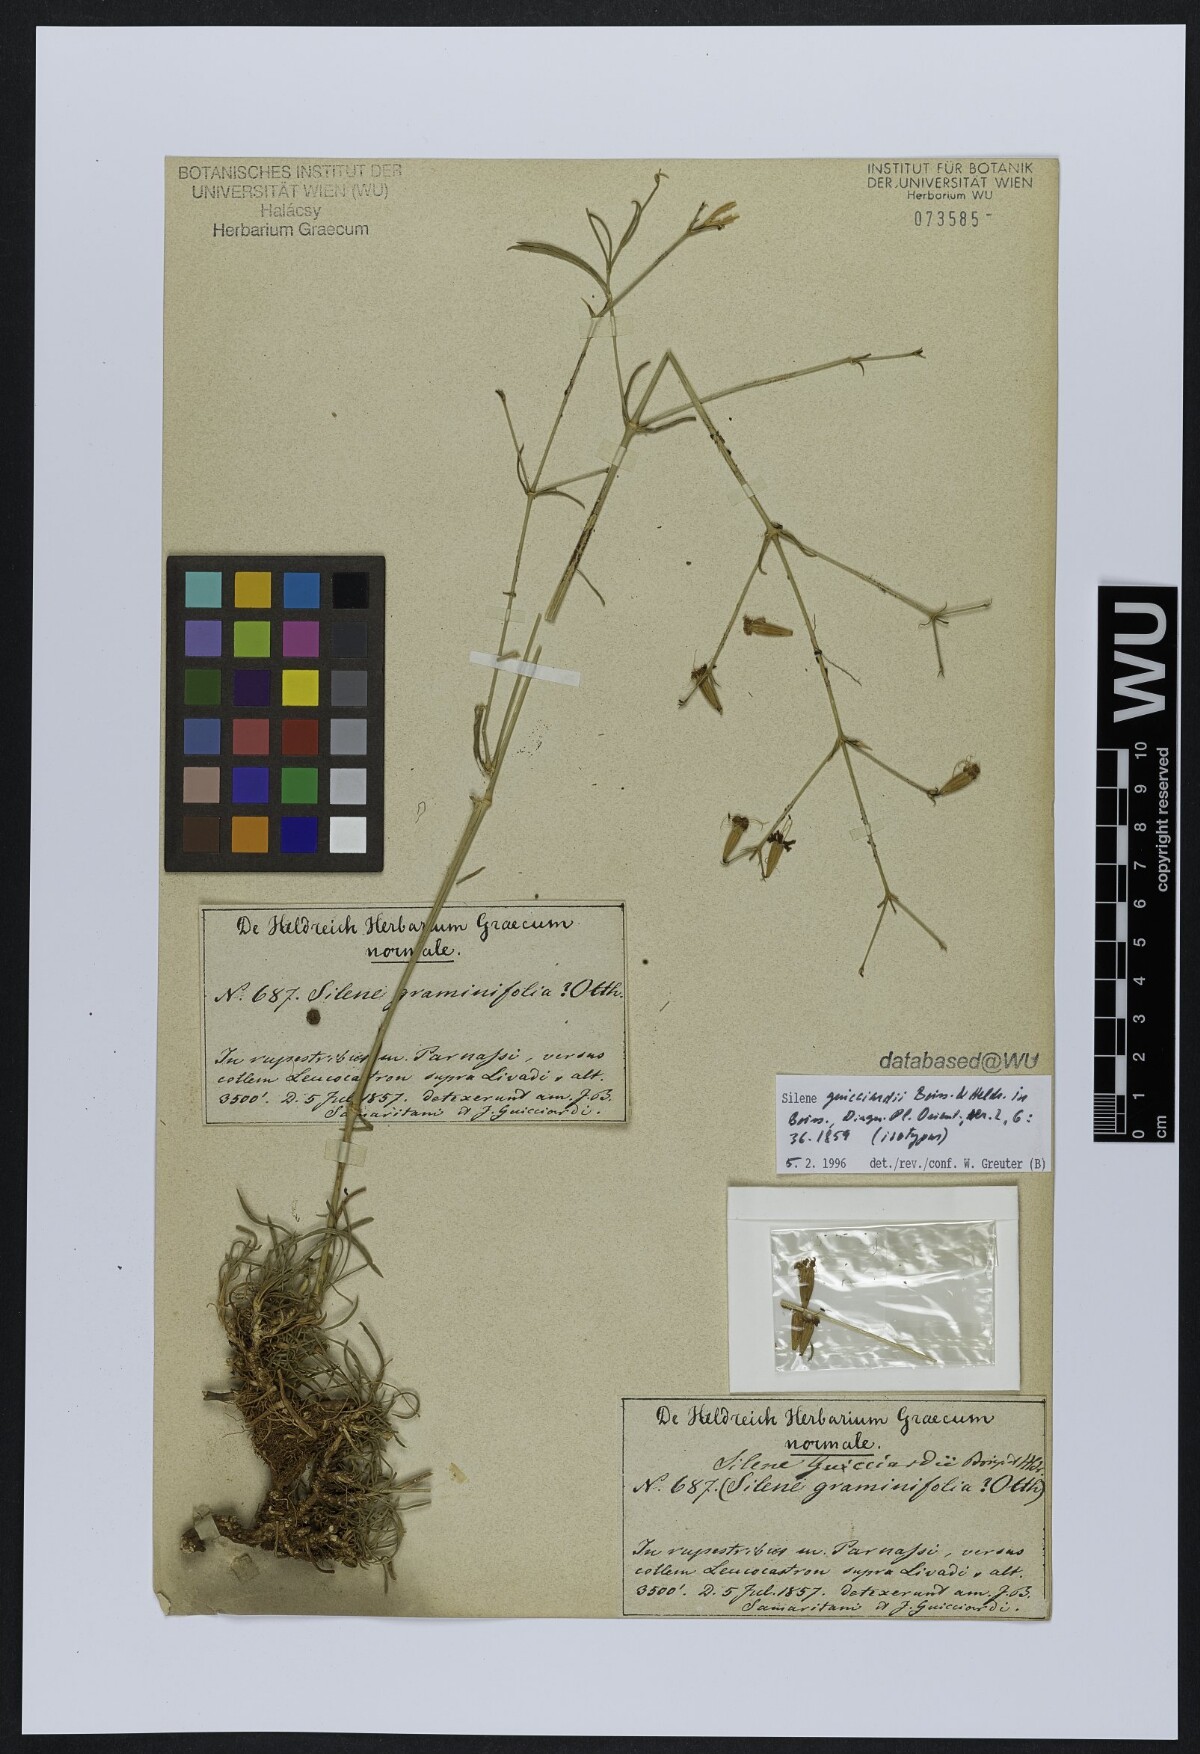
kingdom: Plantae
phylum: Tracheophyta
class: Magnoliopsida
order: Caryophyllales
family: Caryophyllaceae
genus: Silene
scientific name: Silene marschallii
